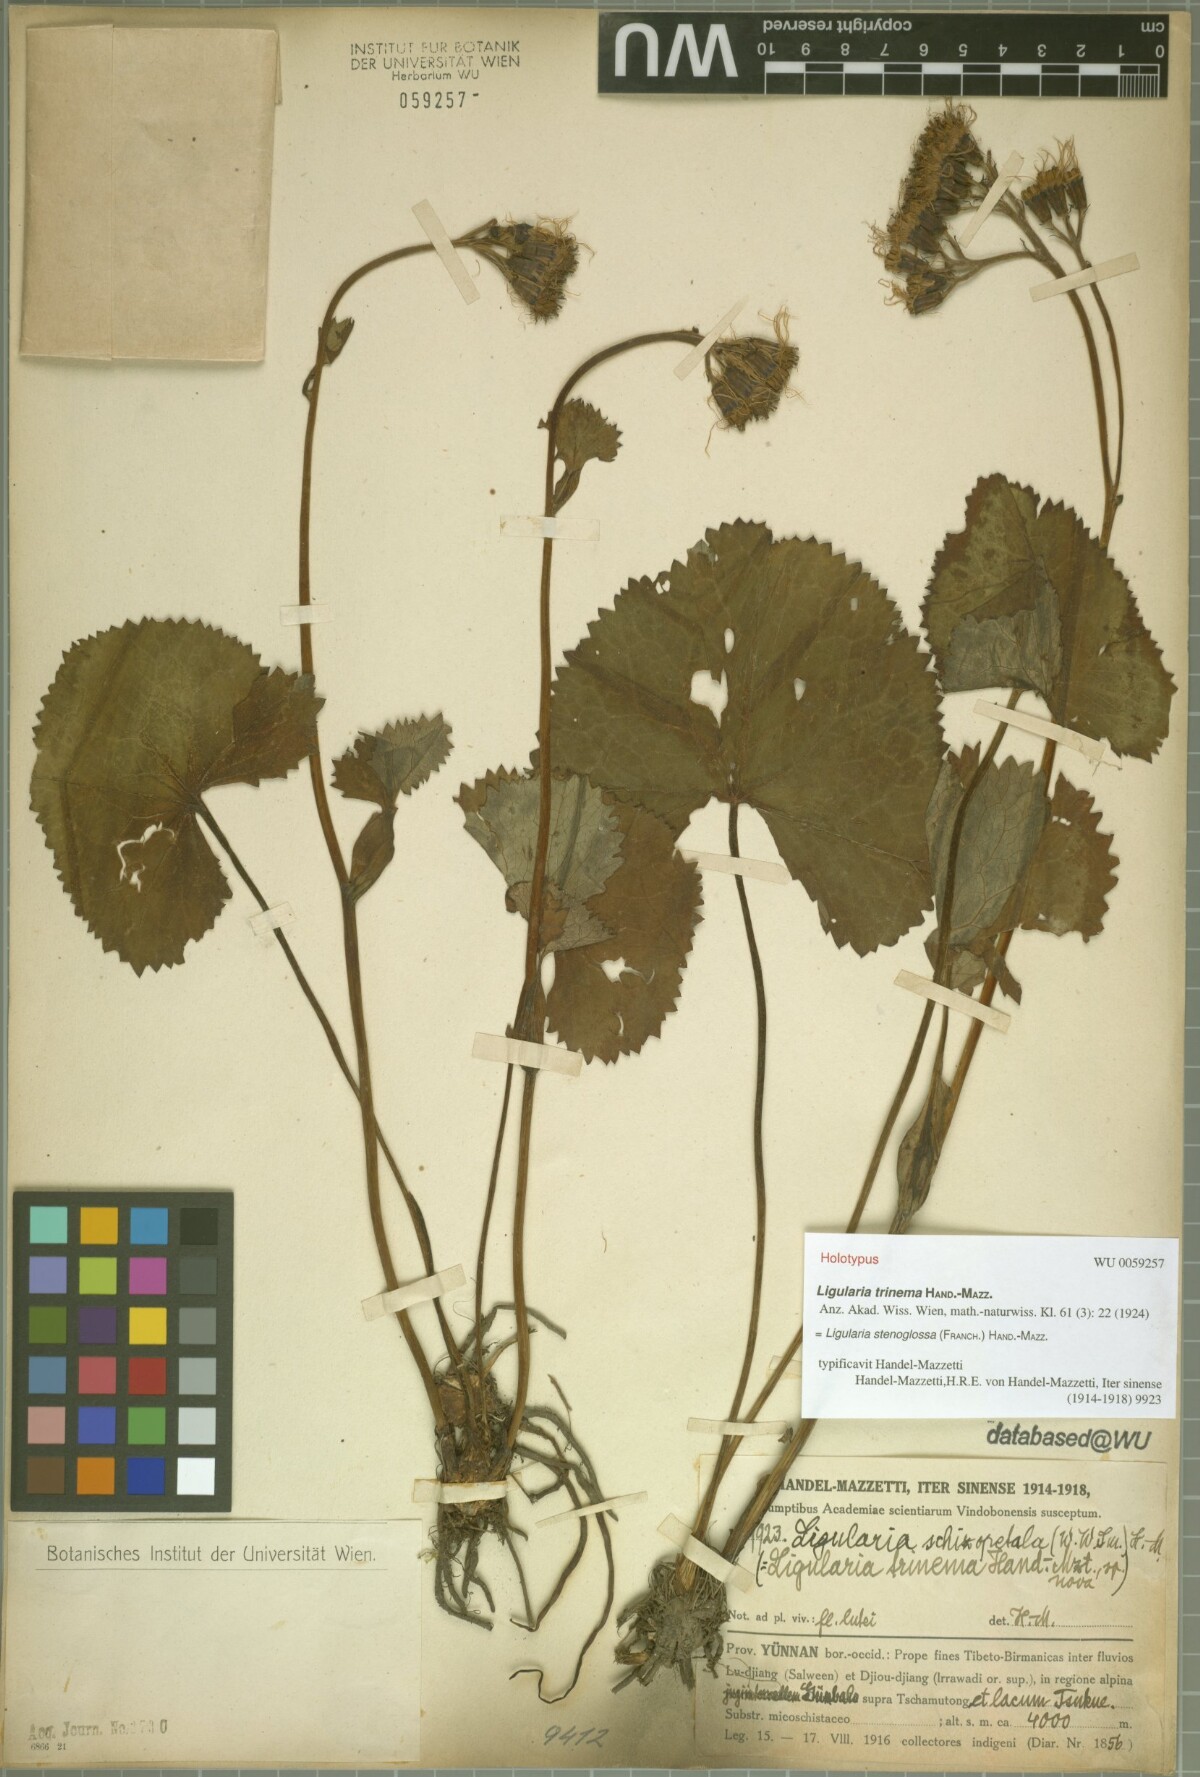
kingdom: Plantae
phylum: Tracheophyta
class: Magnoliopsida
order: Asterales
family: Asteraceae
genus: Ligularia
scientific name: Ligularia stenoglossa
